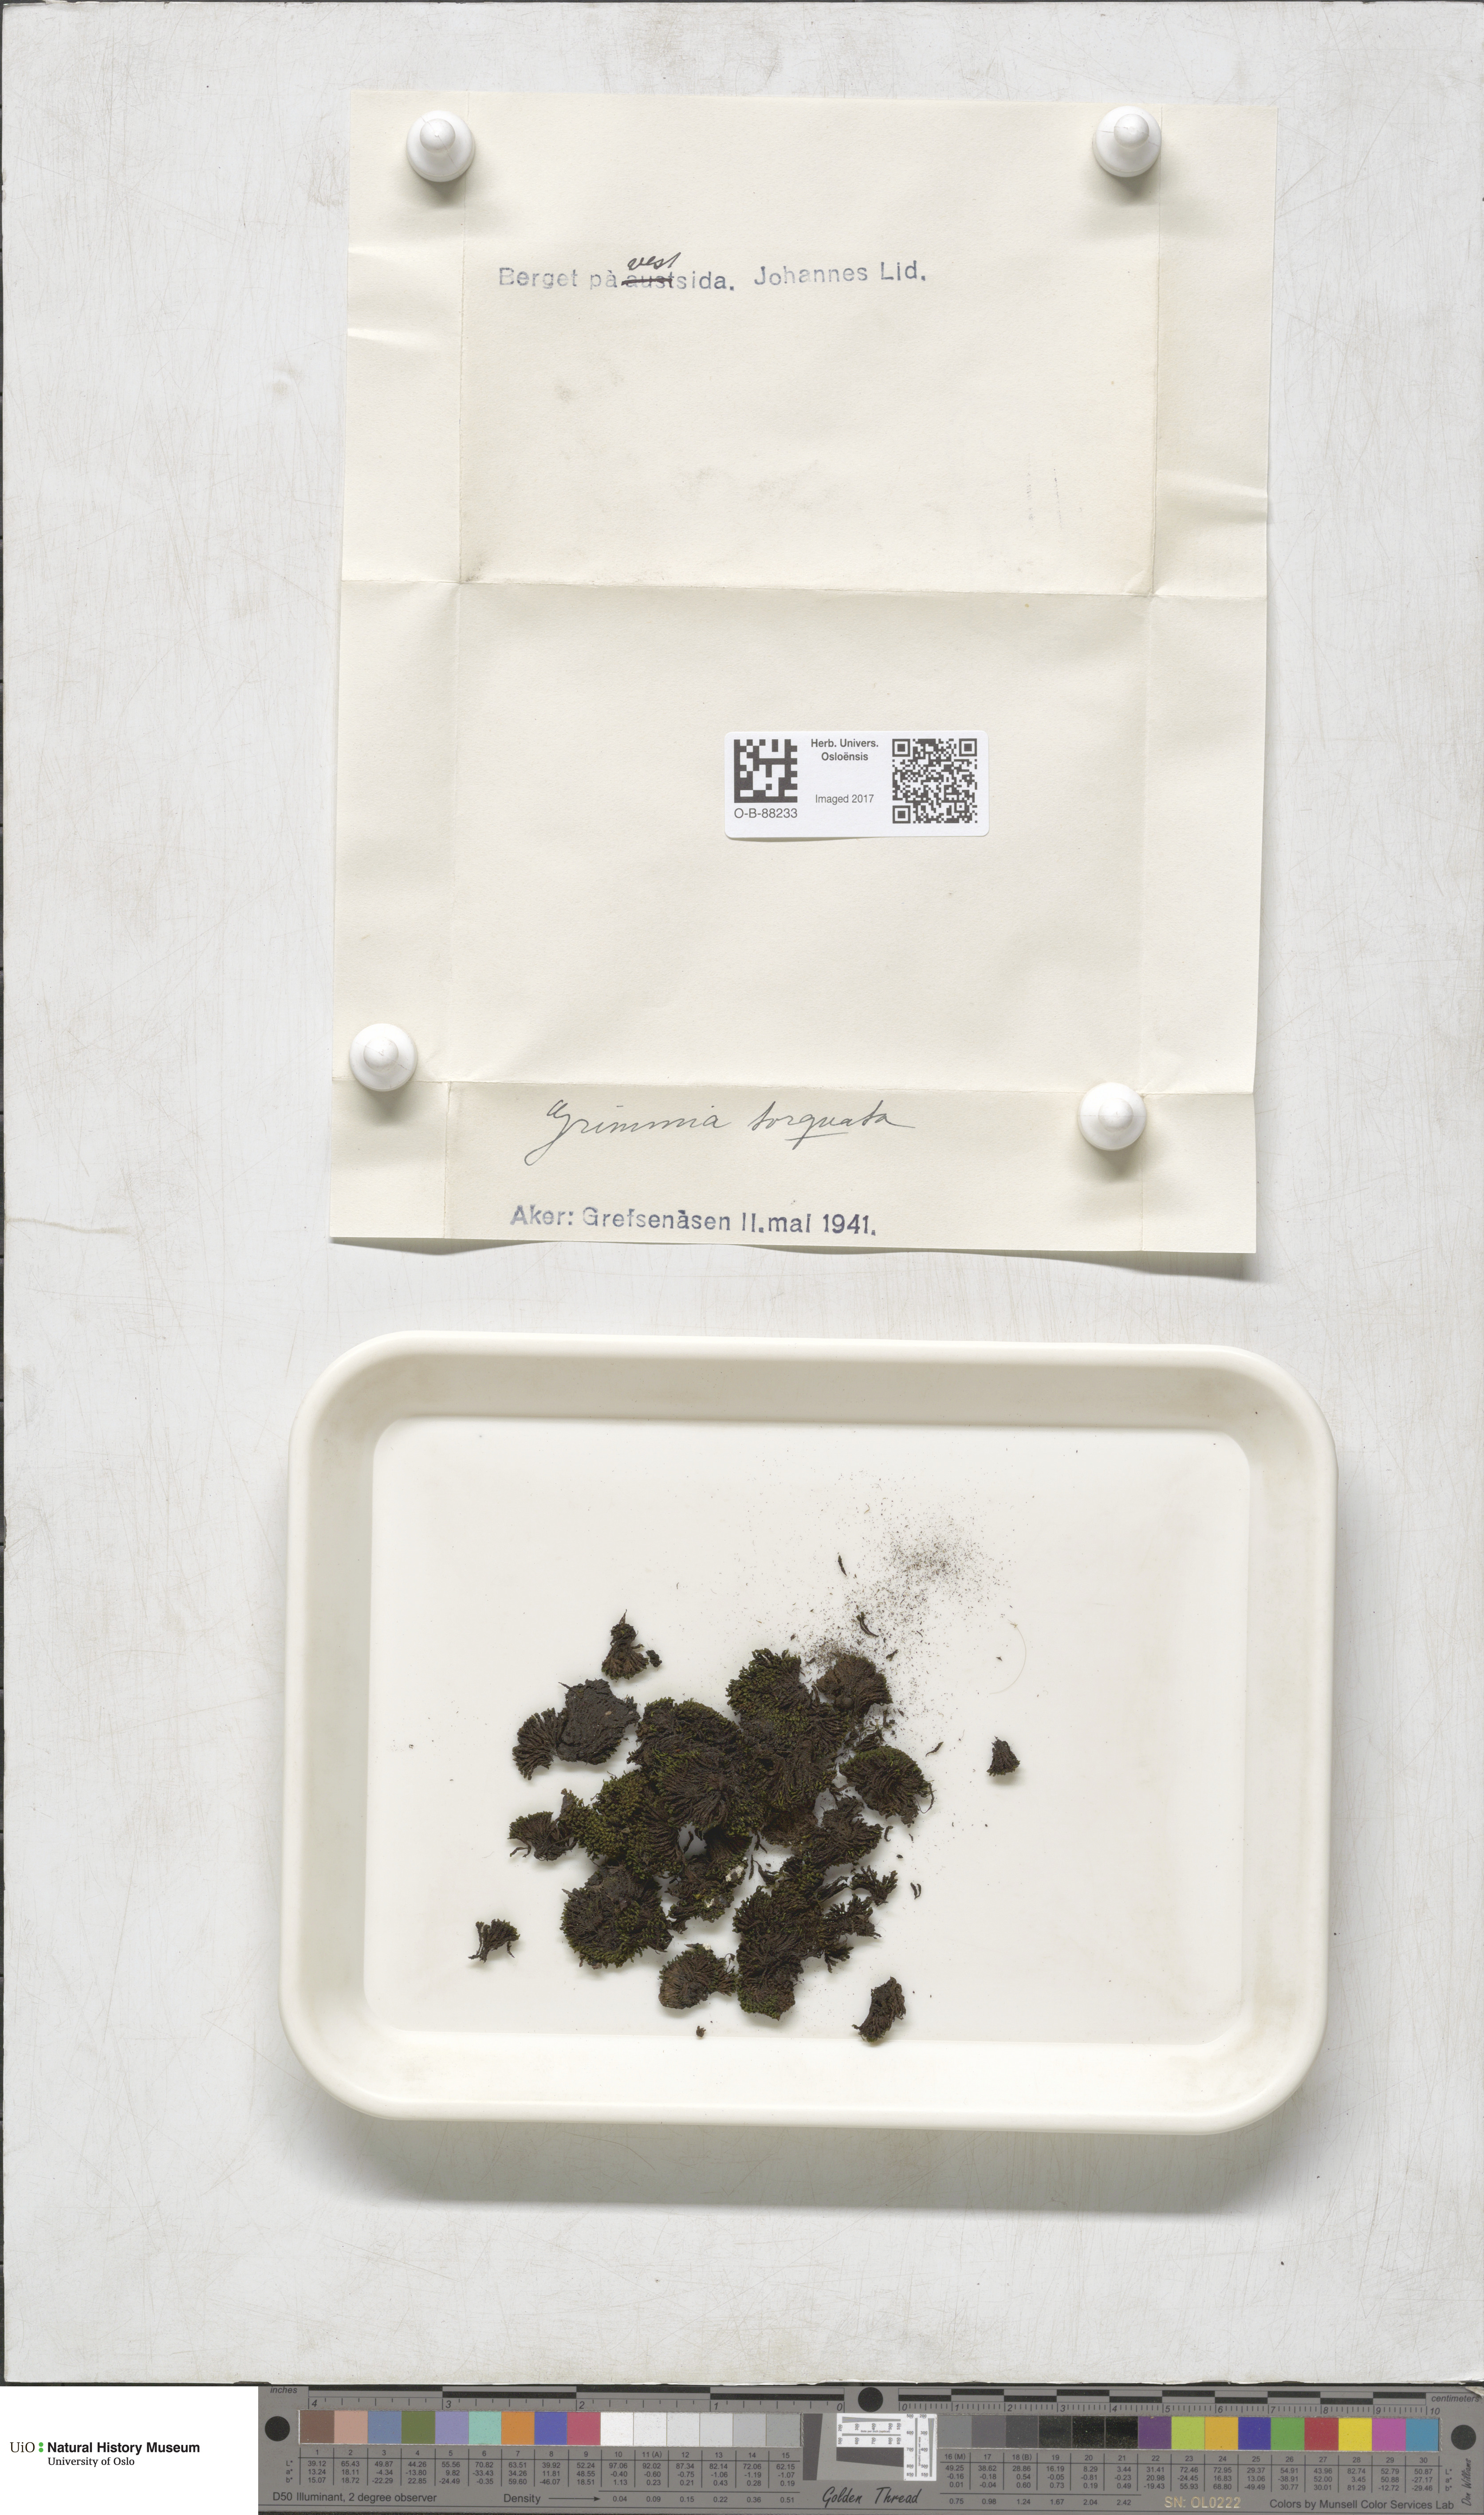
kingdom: Plantae
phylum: Bryophyta
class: Bryopsida
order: Grimmiales
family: Grimmiaceae
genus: Grimmia
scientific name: Grimmia torquata
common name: Twisted grimmia
